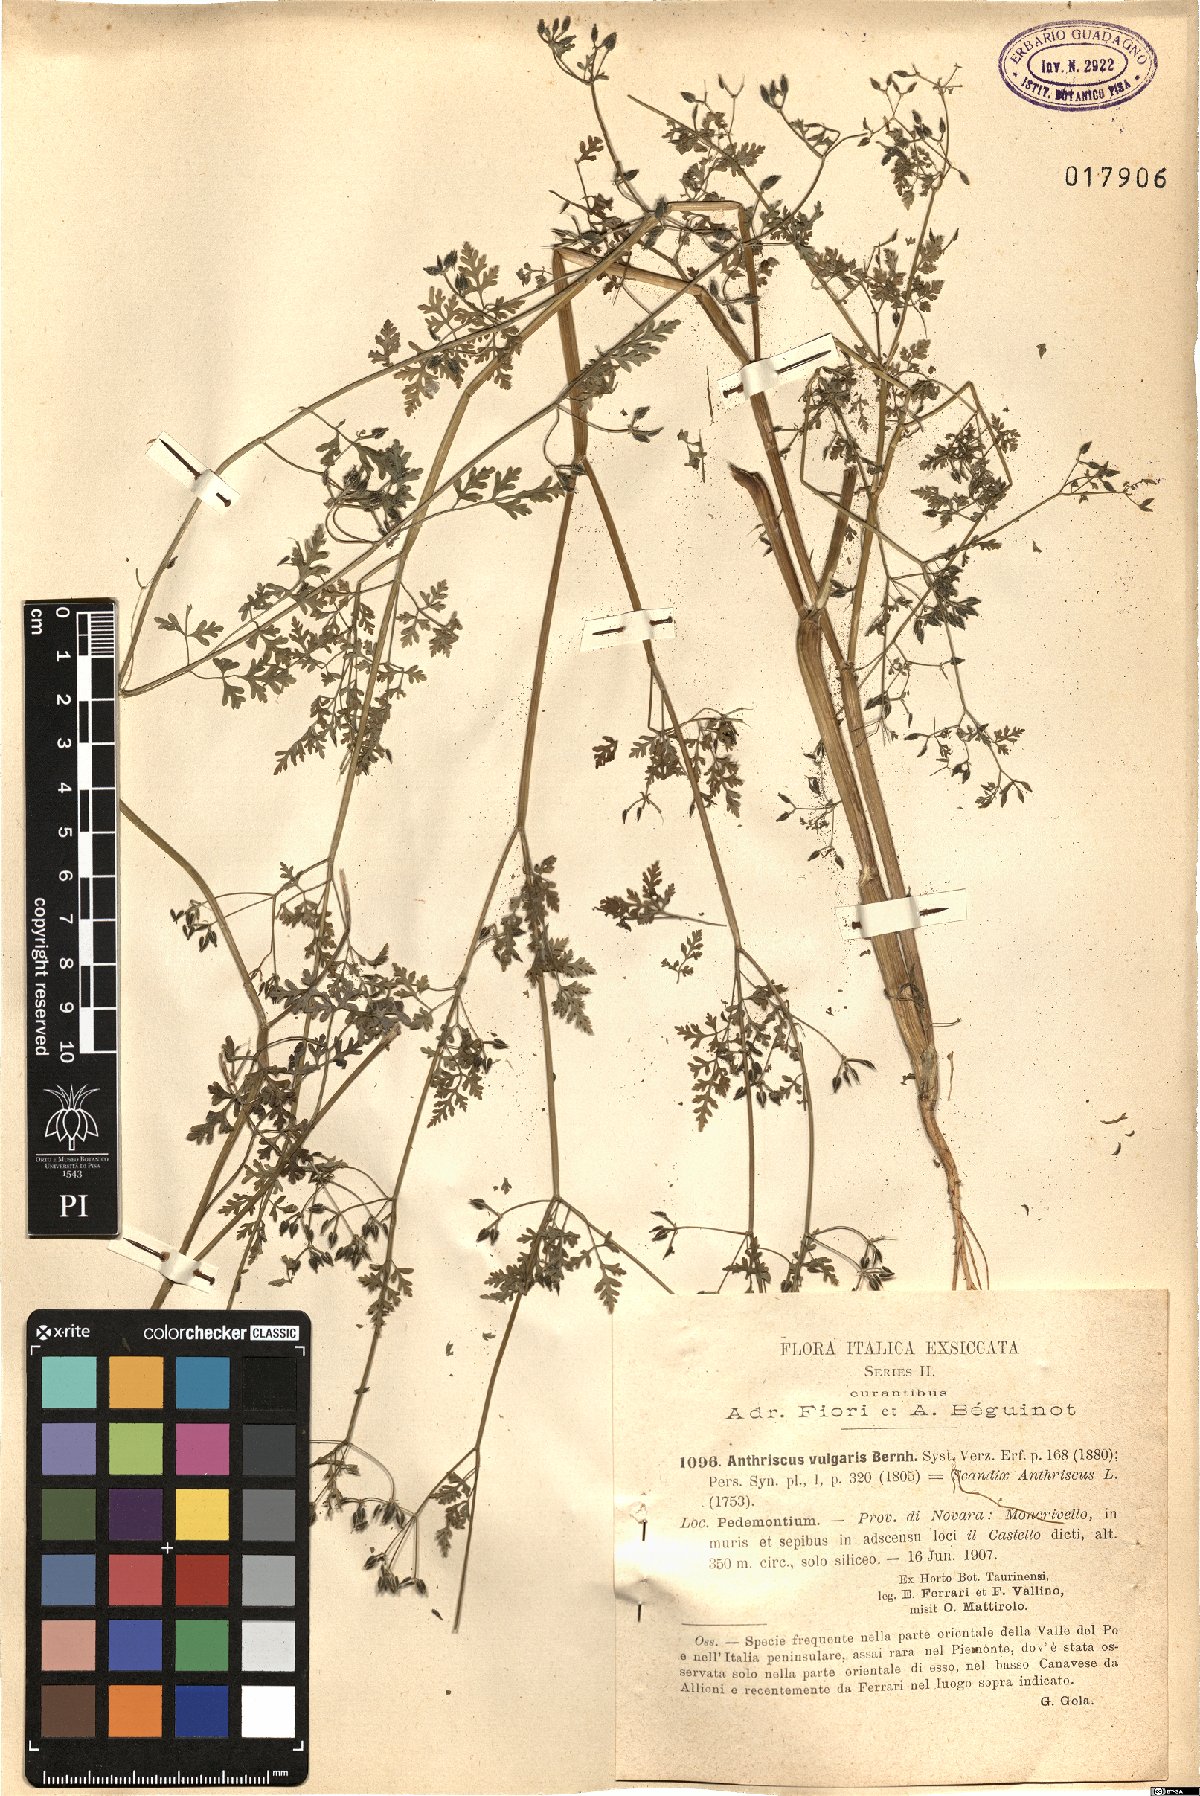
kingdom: Plantae
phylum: Tracheophyta
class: Magnoliopsida
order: Apiales
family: Apiaceae
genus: Torilis
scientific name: Torilis japonica
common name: Upright hedge-parsley
